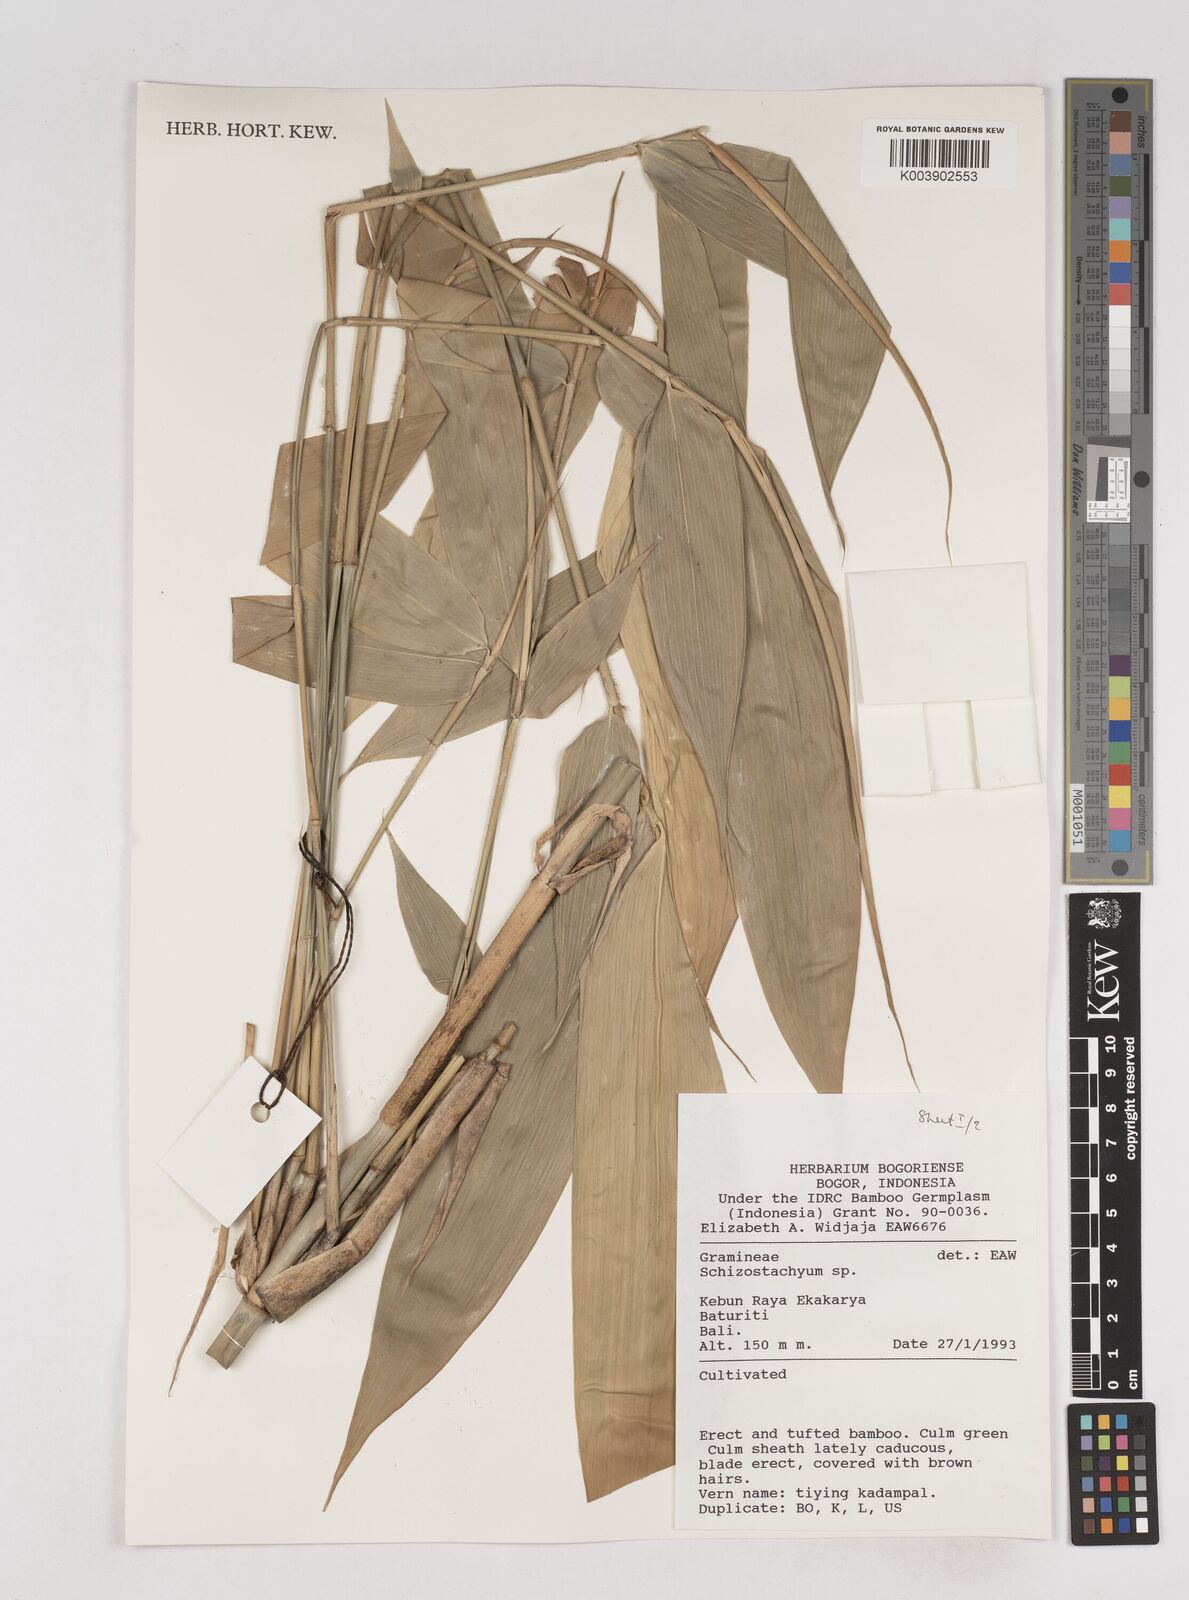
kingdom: Plantae
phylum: Tracheophyta
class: Liliopsida
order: Poales
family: Poaceae
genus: Schizostachyum
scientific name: Schizostachyum
